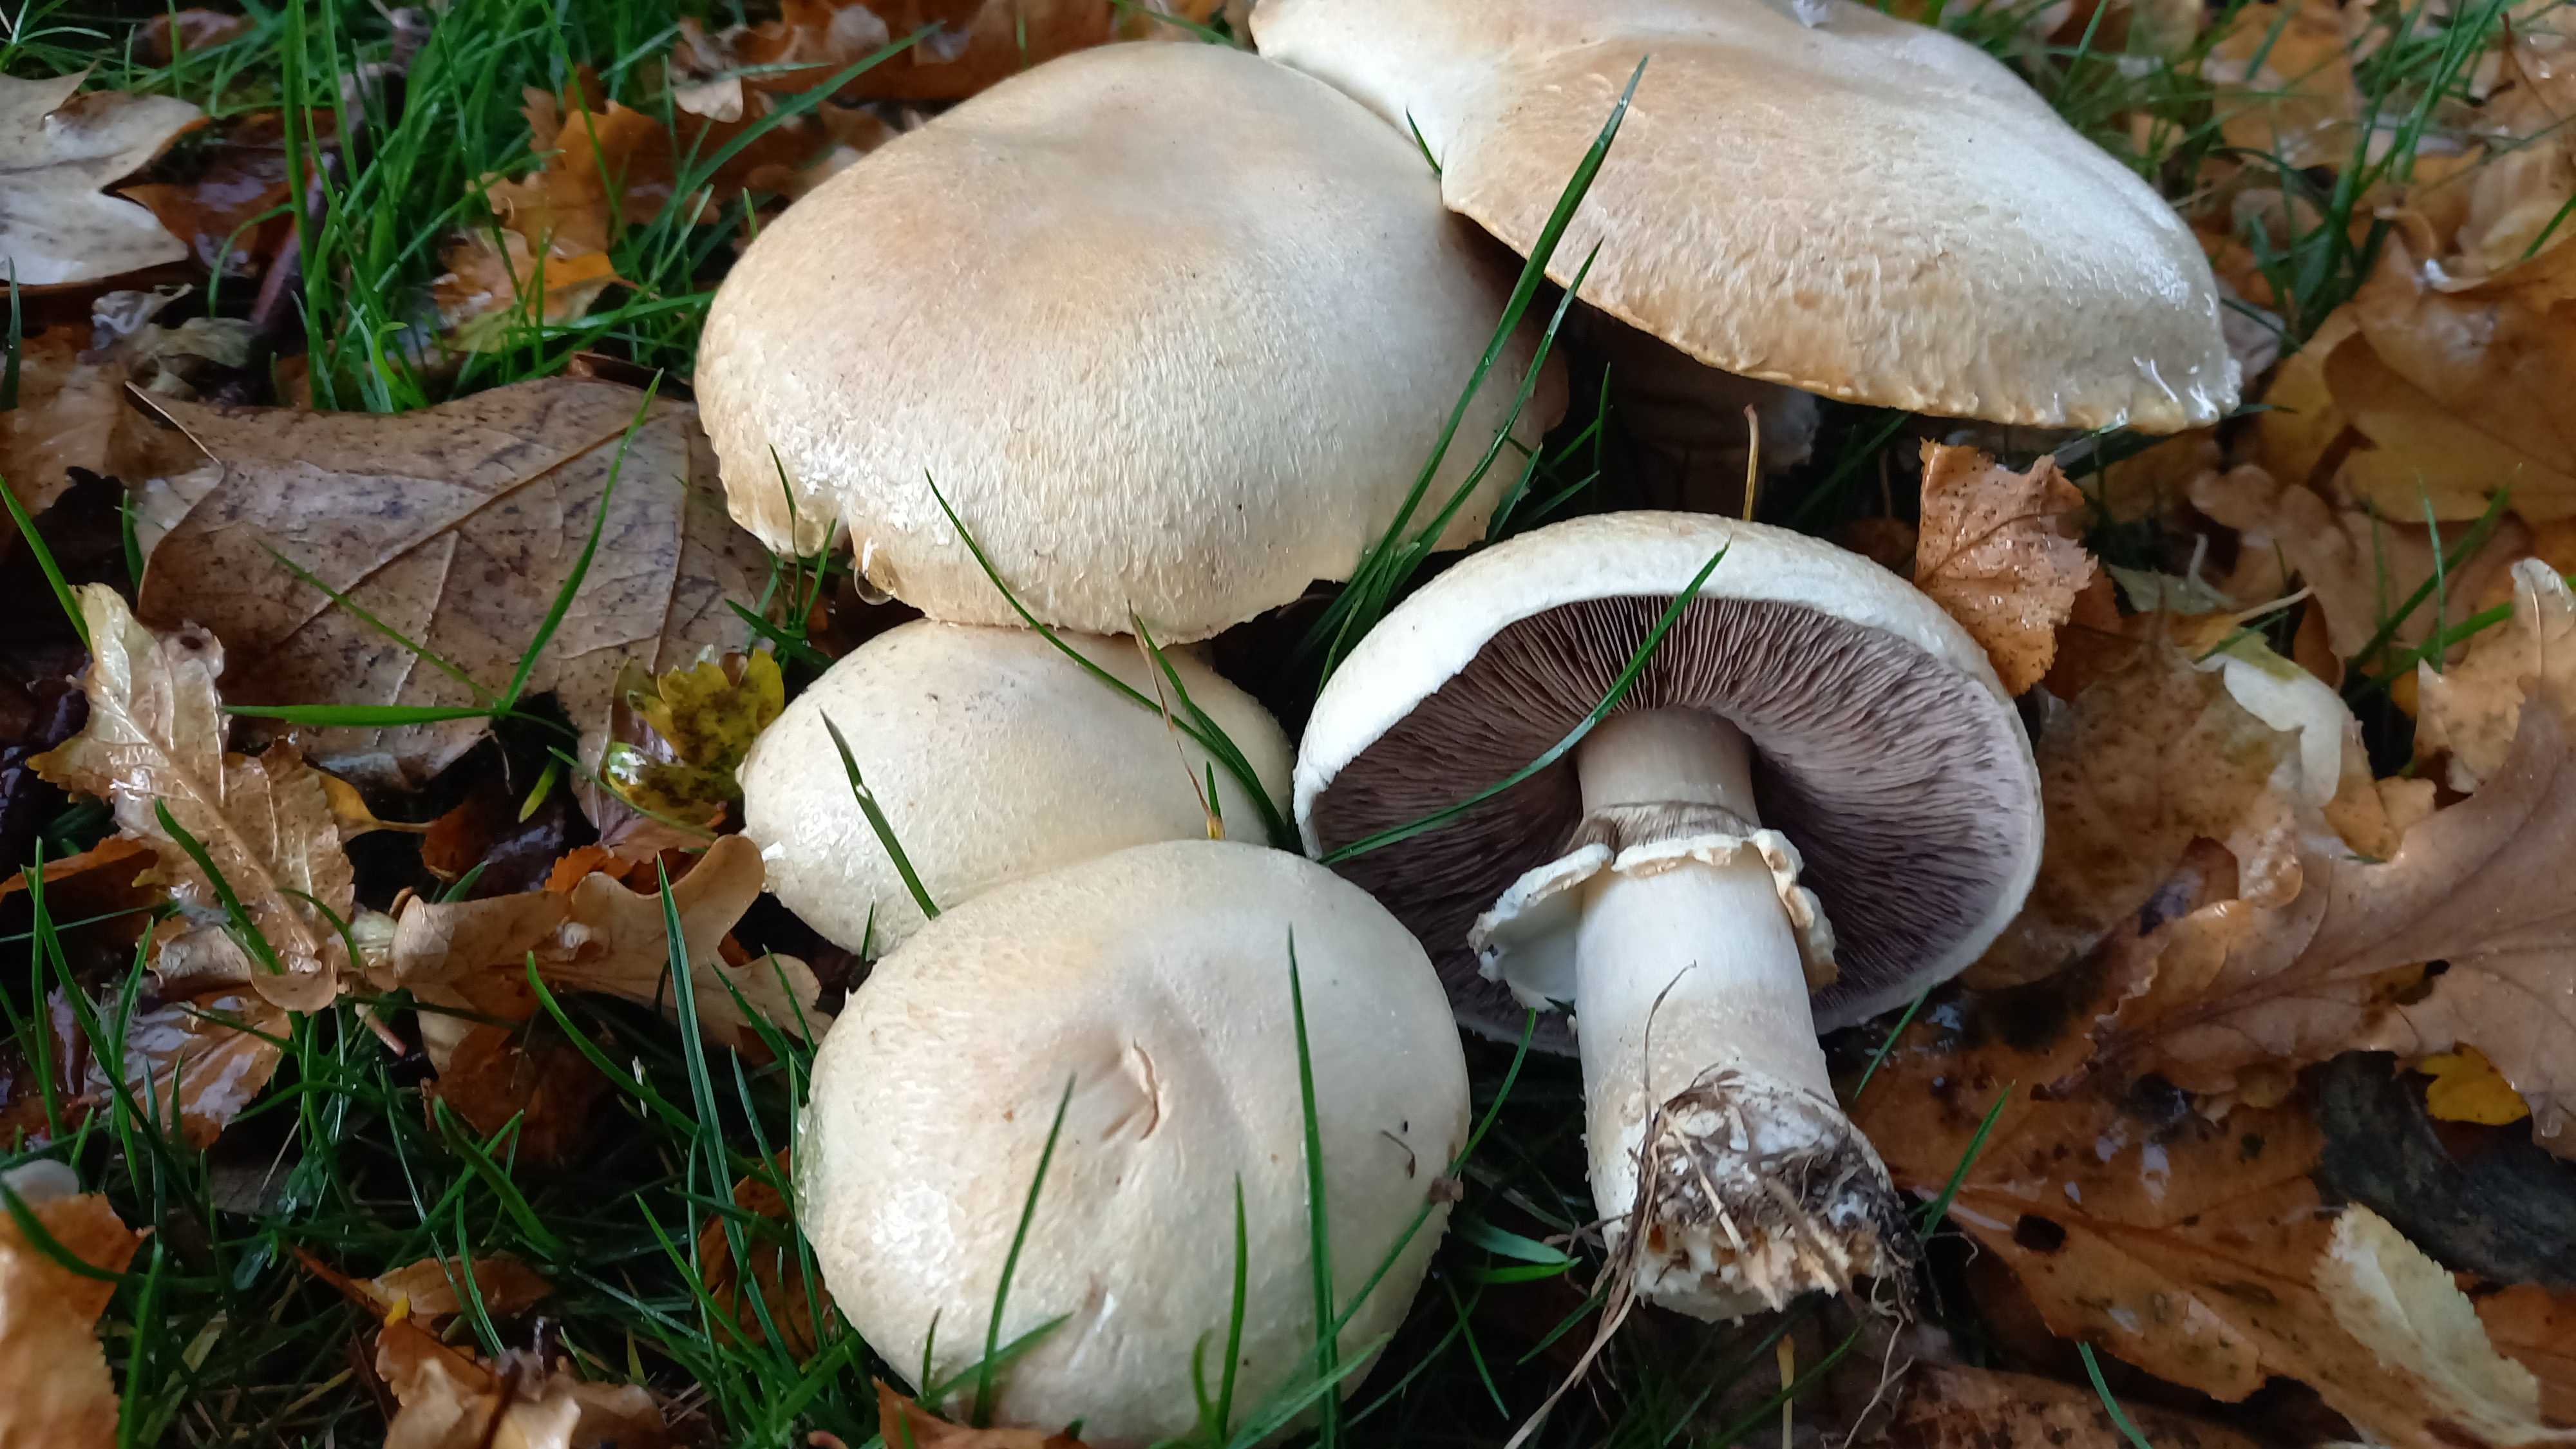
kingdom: Fungi
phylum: Basidiomycota
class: Agaricomycetes
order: Agaricales
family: Agaricaceae
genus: Agaricus
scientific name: Agaricus
